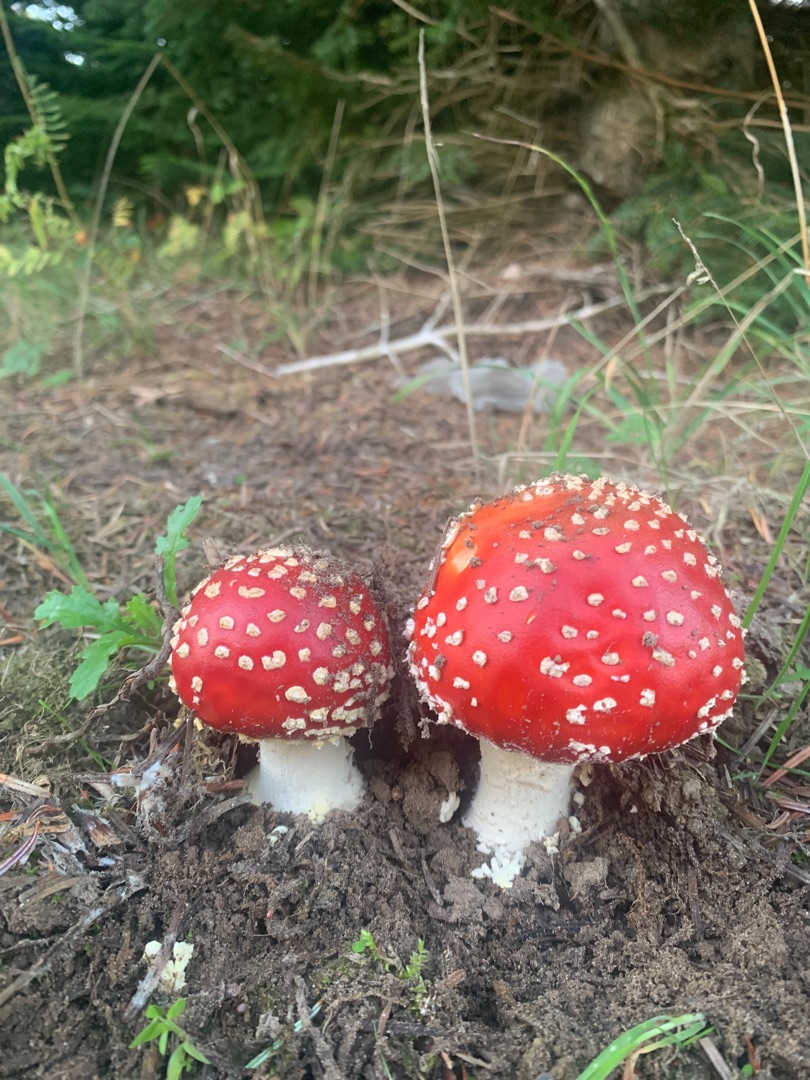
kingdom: Fungi
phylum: Basidiomycota
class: Agaricomycetes
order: Agaricales
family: Amanitaceae
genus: Amanita
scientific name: Amanita muscaria
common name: Rød fluesvamp
